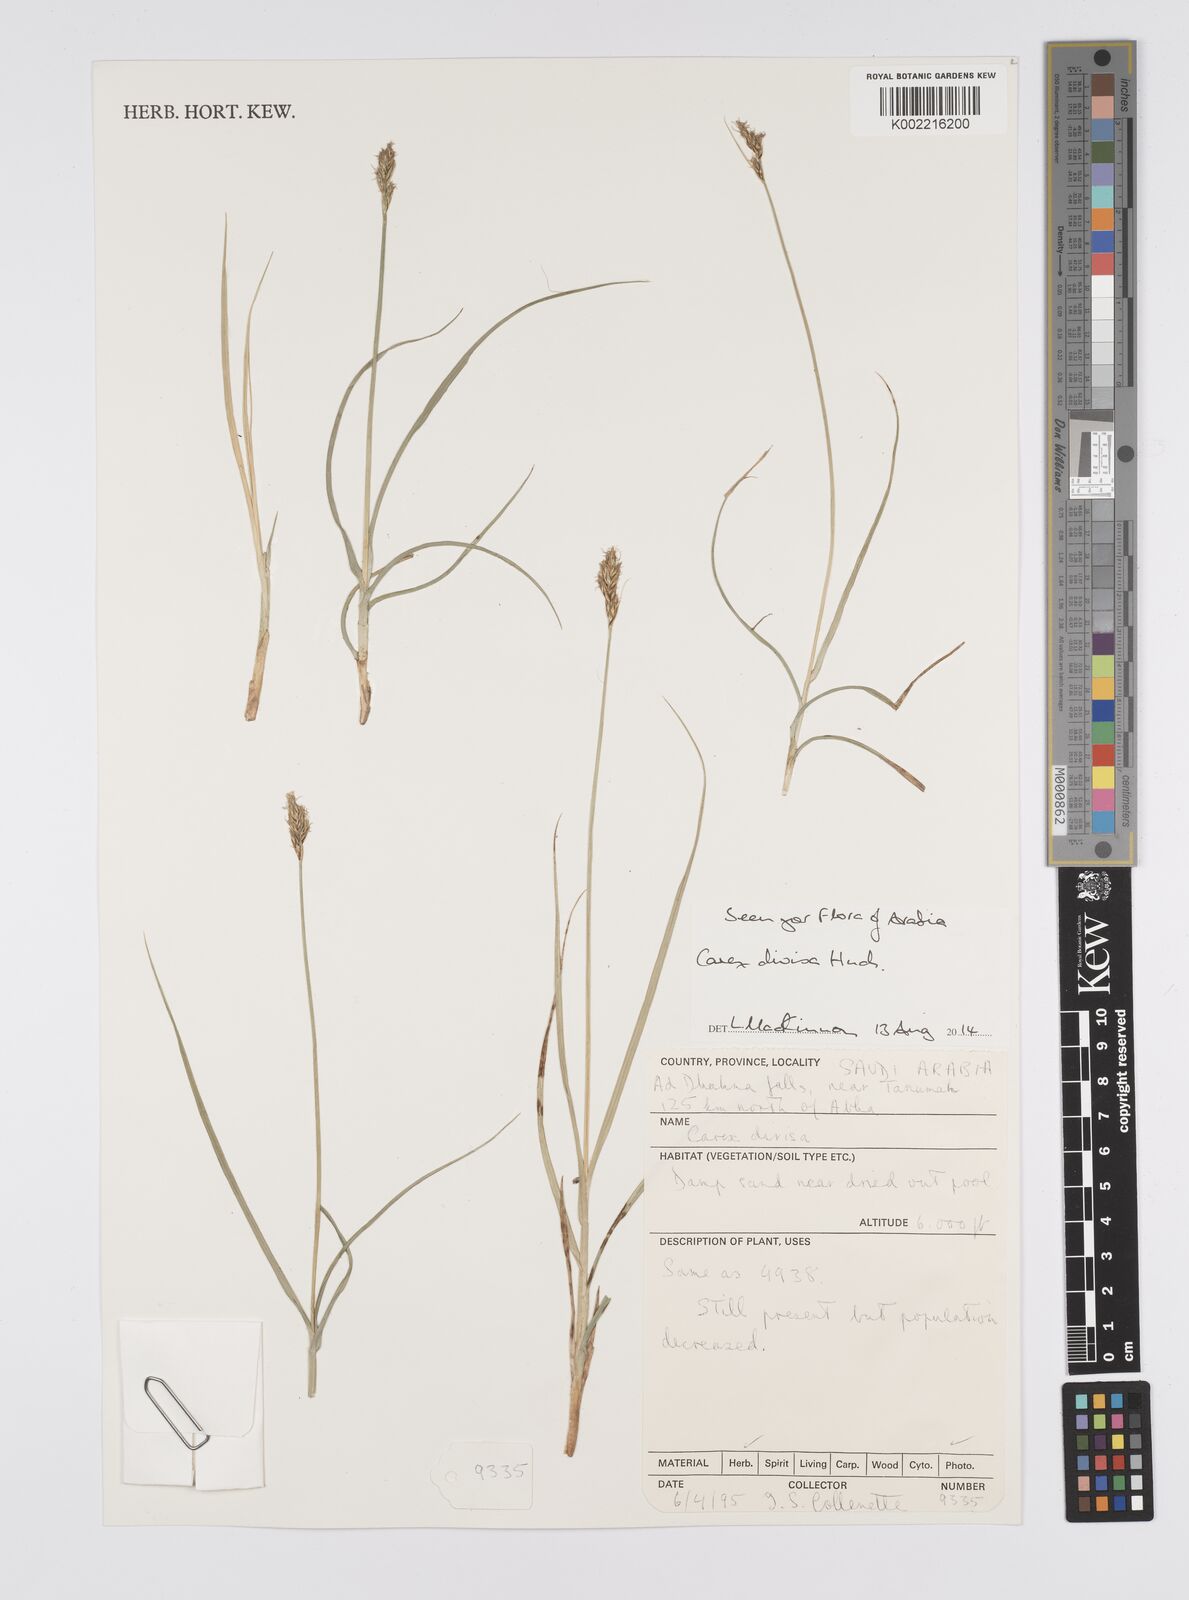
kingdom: Plantae
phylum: Tracheophyta
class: Liliopsida
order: Poales
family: Cyperaceae
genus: Carex
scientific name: Carex divisa
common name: Divided sedge
